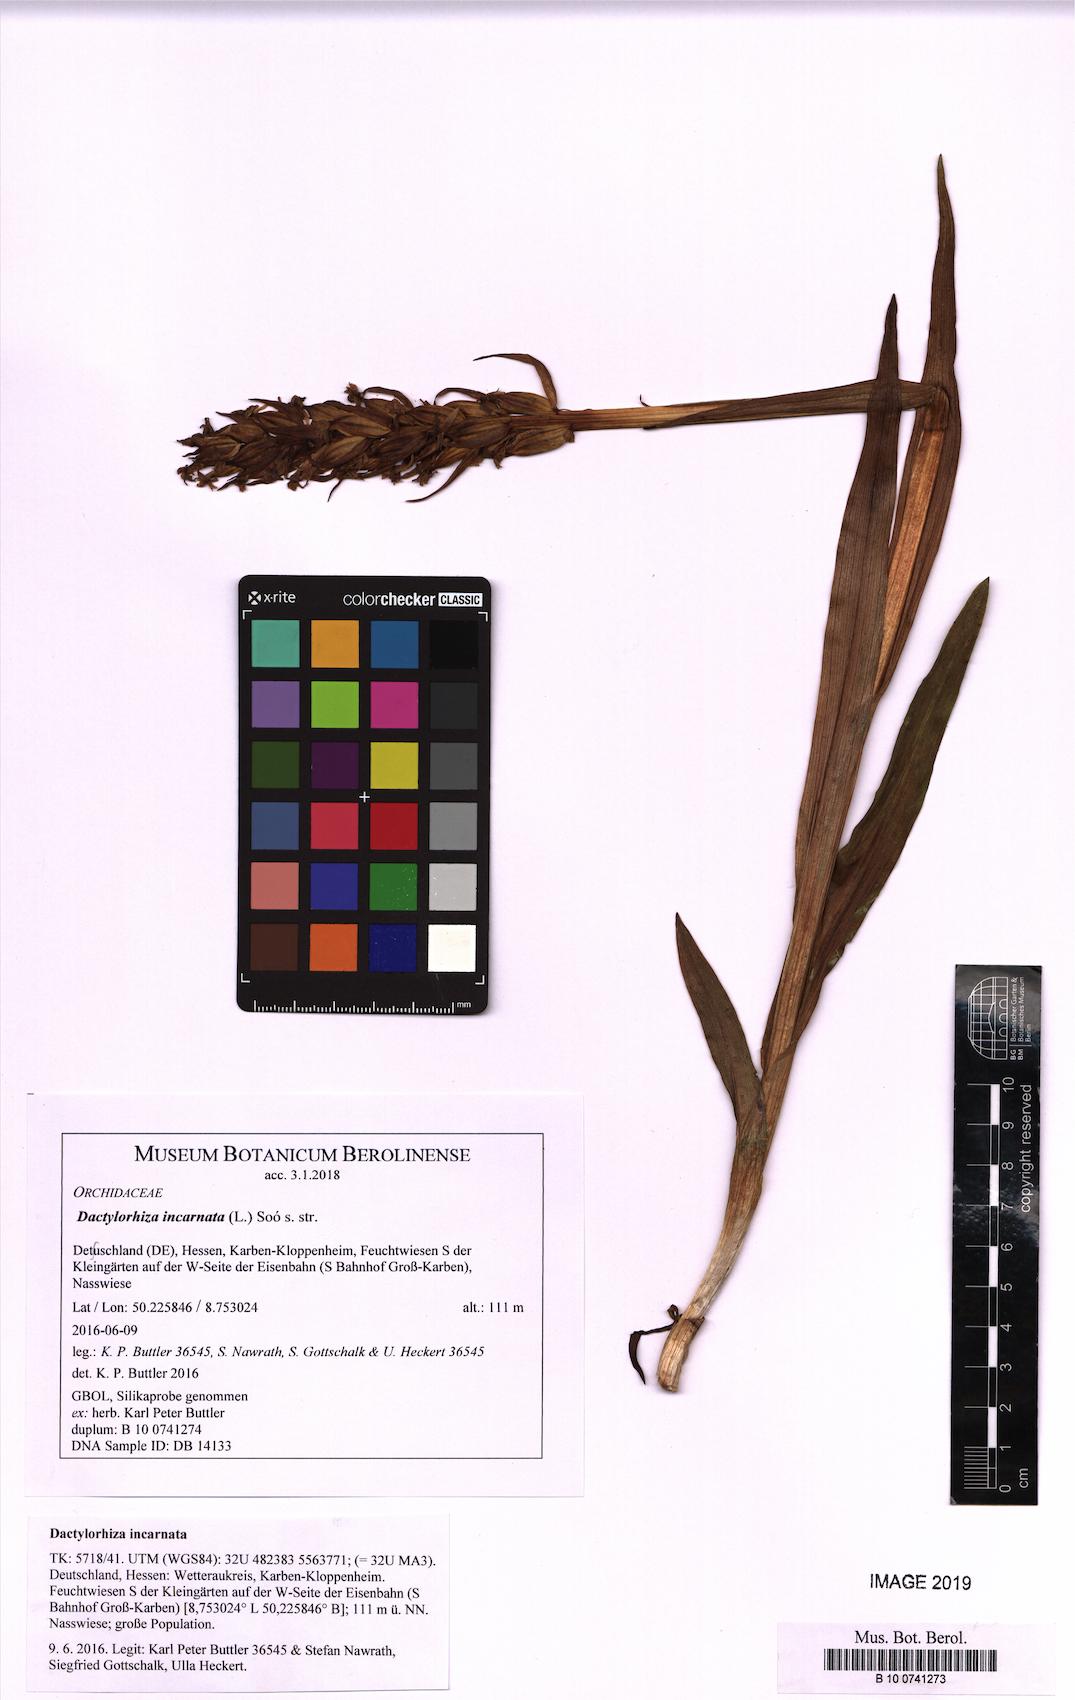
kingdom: Plantae
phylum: Tracheophyta
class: Liliopsida
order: Asparagales
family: Orchidaceae
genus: Dactylorhiza
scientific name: Dactylorhiza incarnata
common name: Early marsh-orchid
